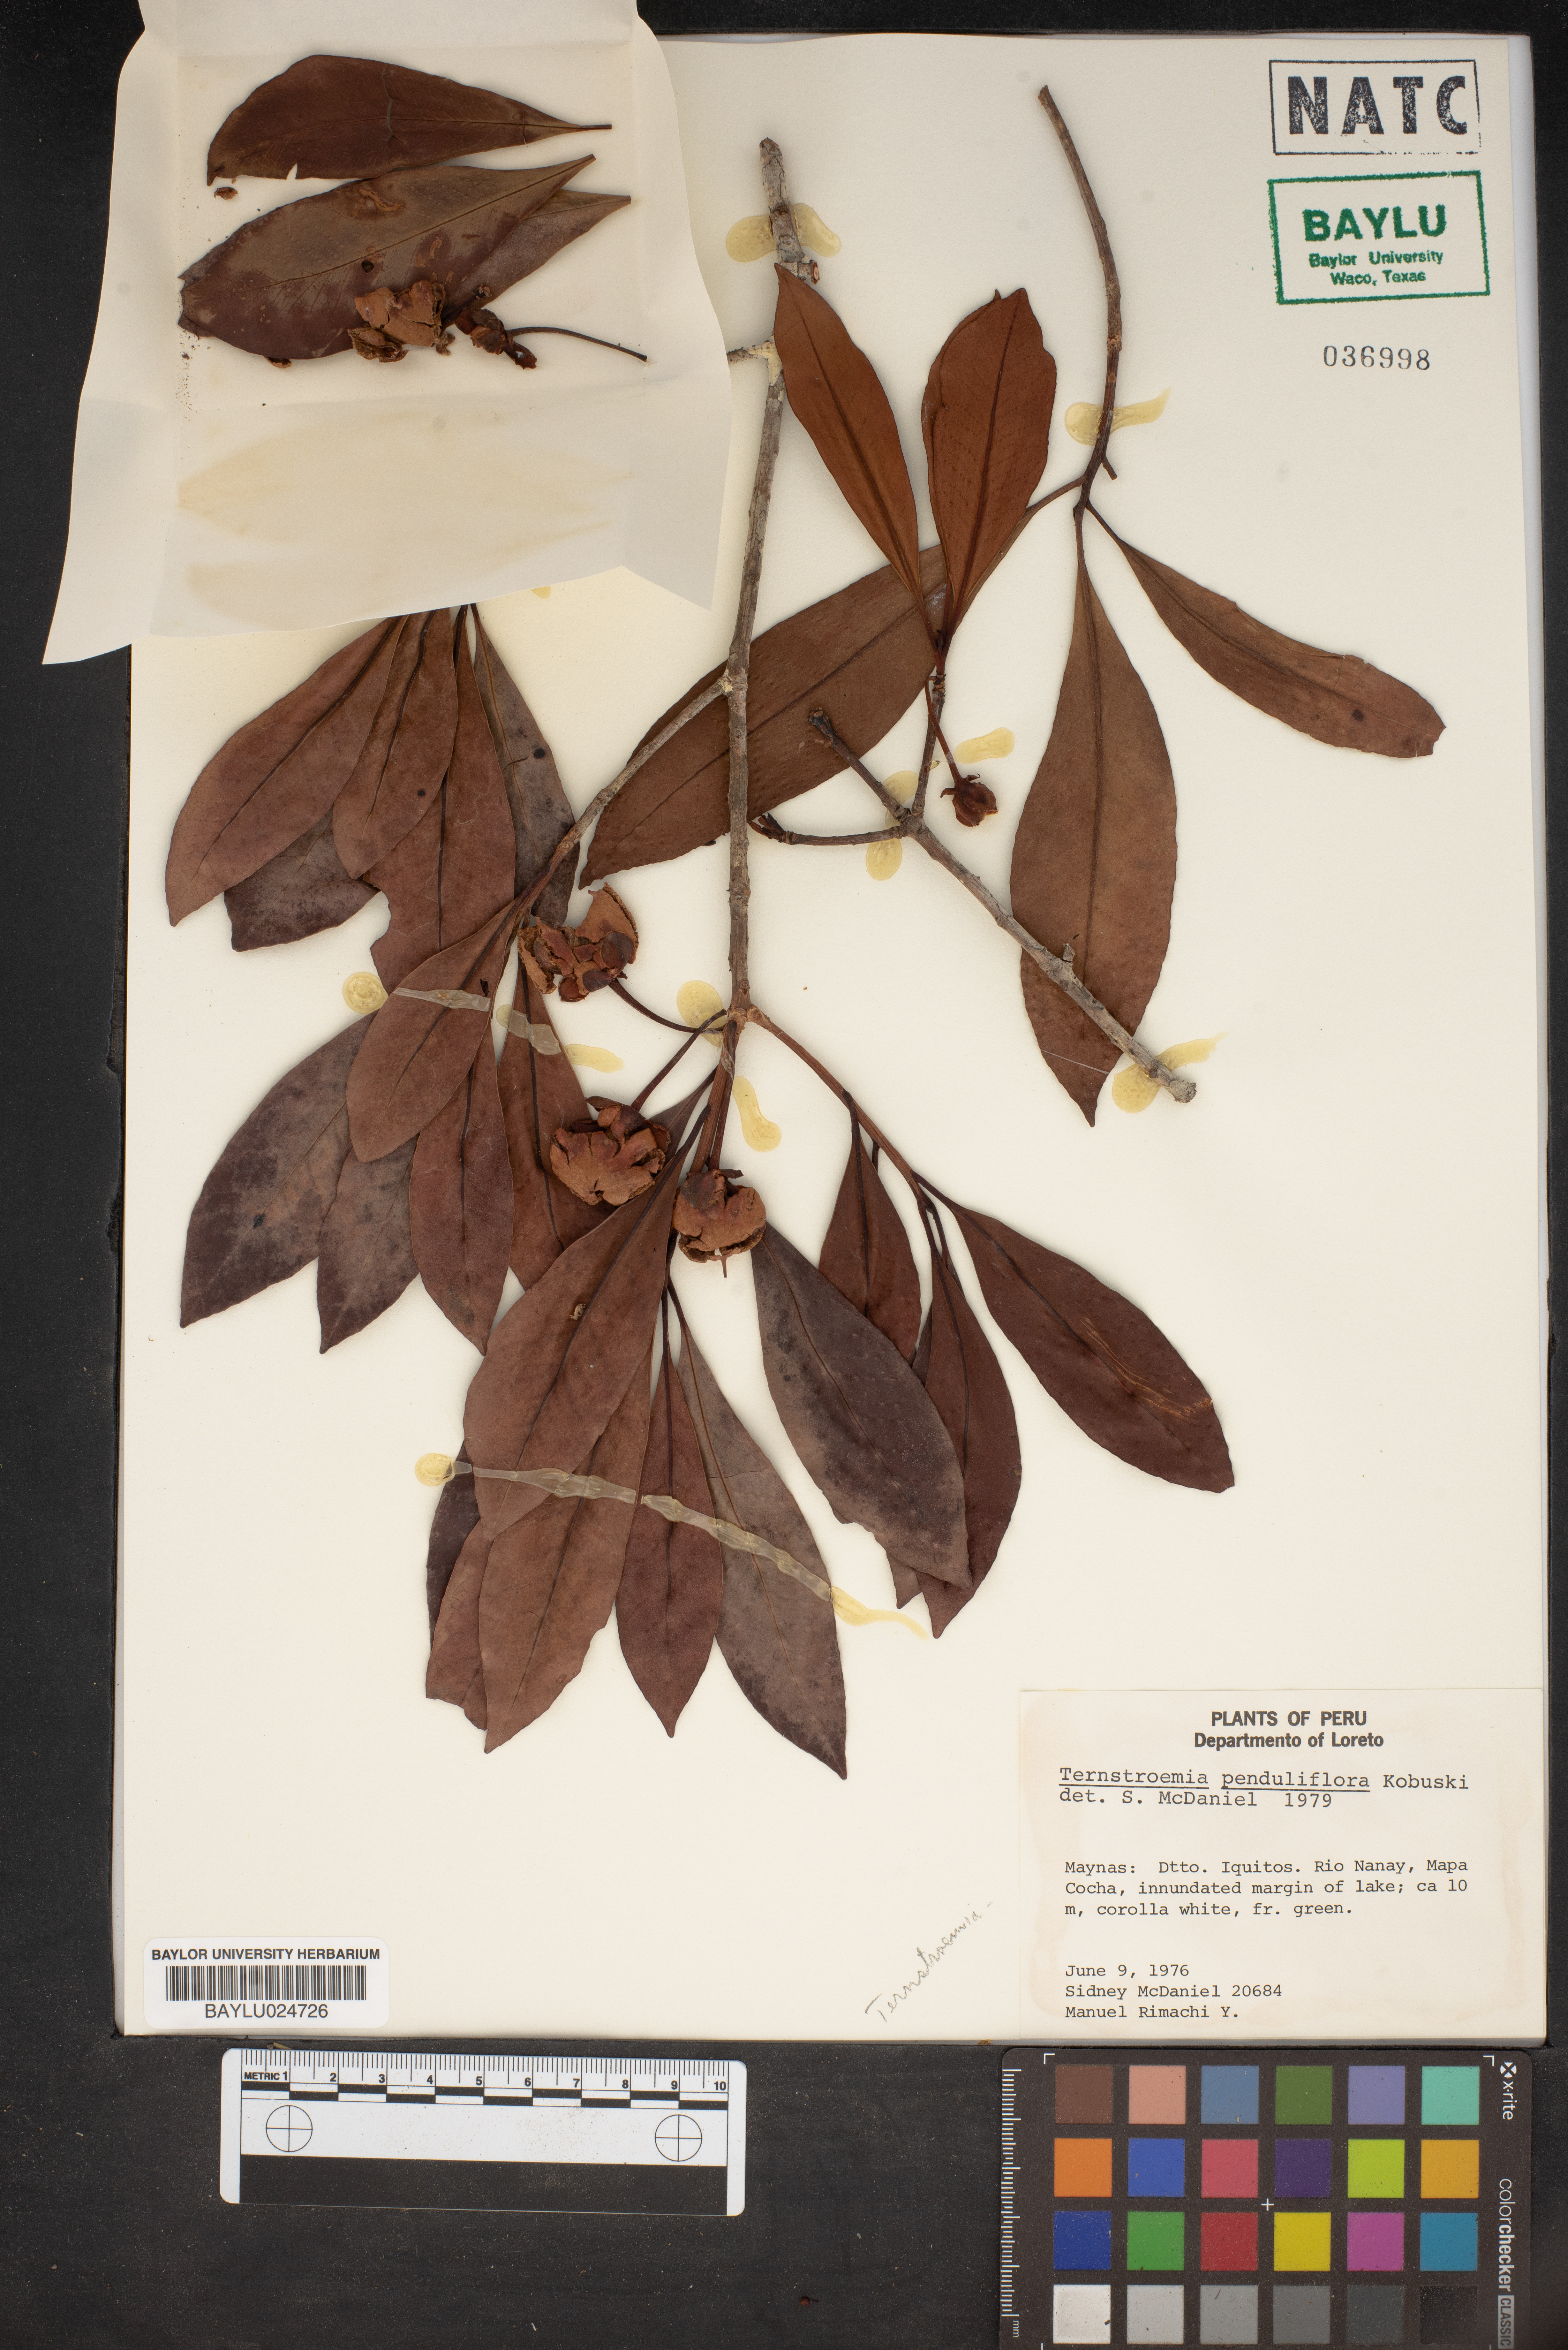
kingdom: Plantae
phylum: Tracheophyta
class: Magnoliopsida
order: Ericales
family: Pentaphylacaceae
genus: Ternstroemia
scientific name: Ternstroemia penduliflora
